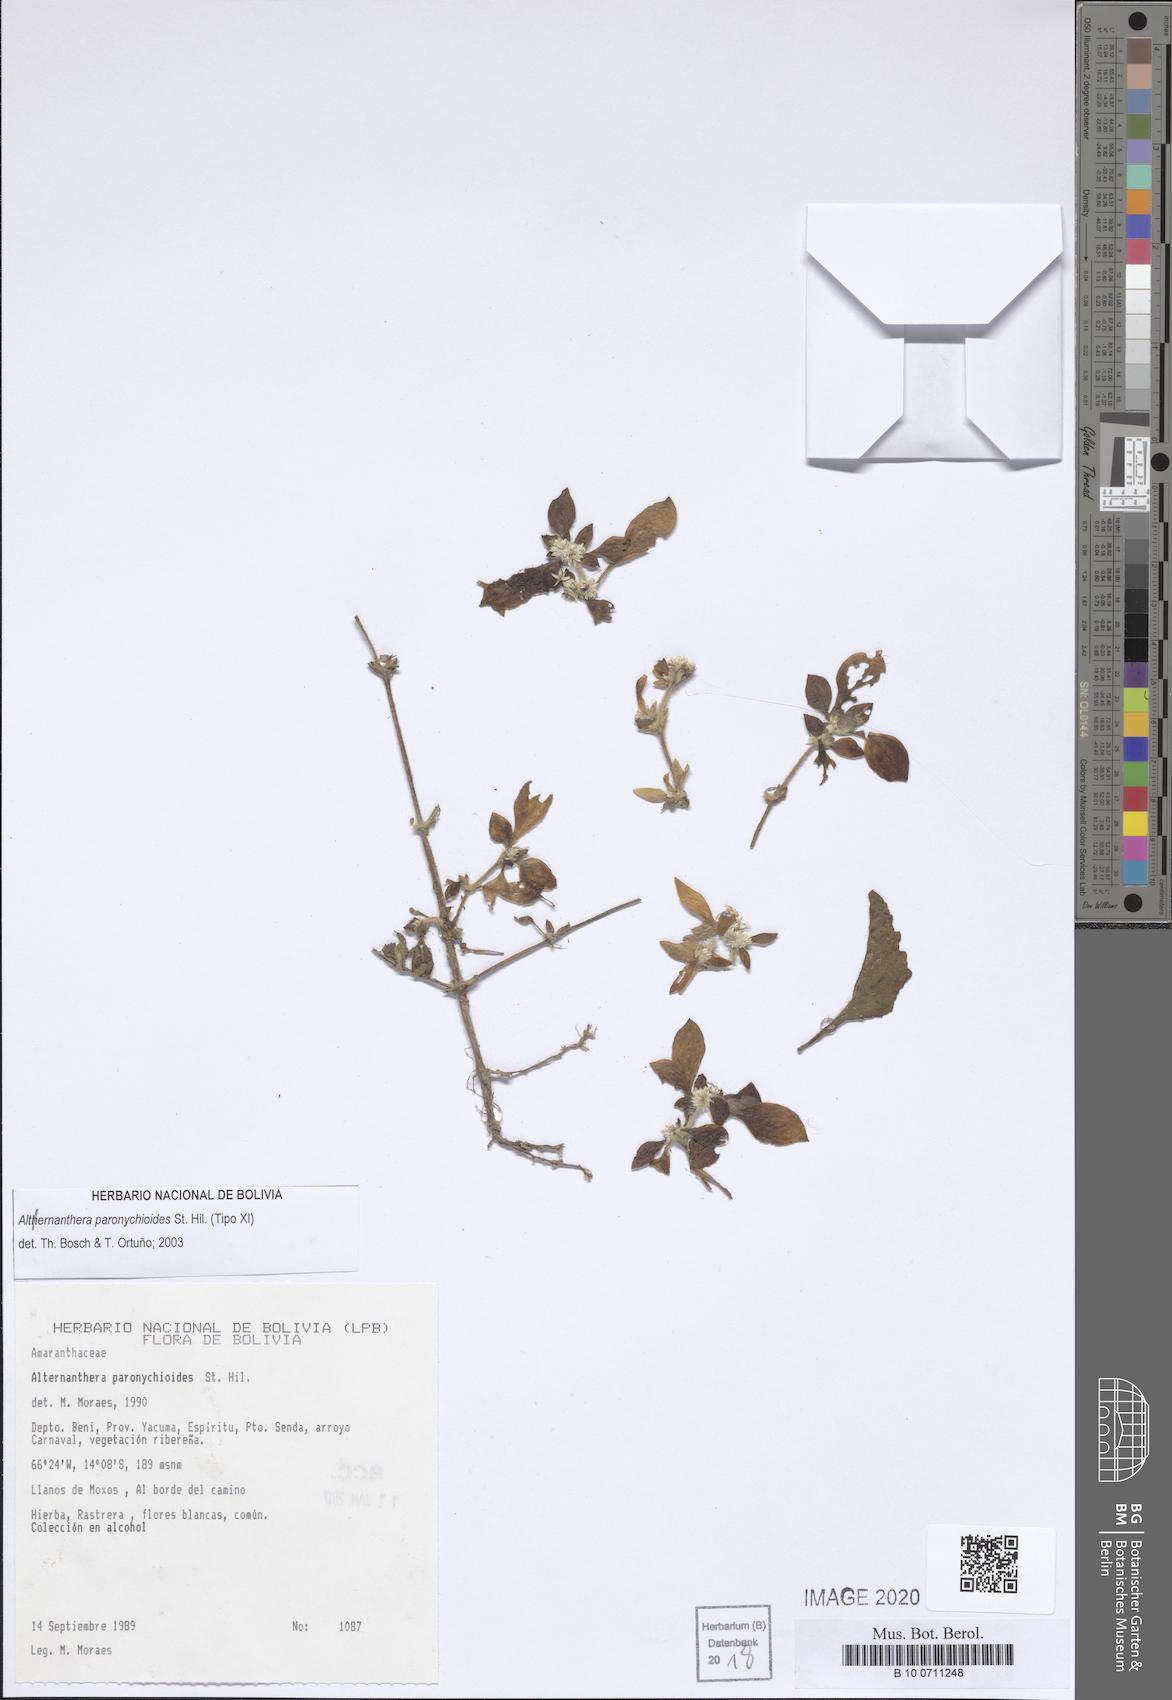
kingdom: Plantae
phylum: Tracheophyta
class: Magnoliopsida
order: Caryophyllales
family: Amaranthaceae
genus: Alternanthera
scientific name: Alternanthera paronychioides
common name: Smooth joyweed
